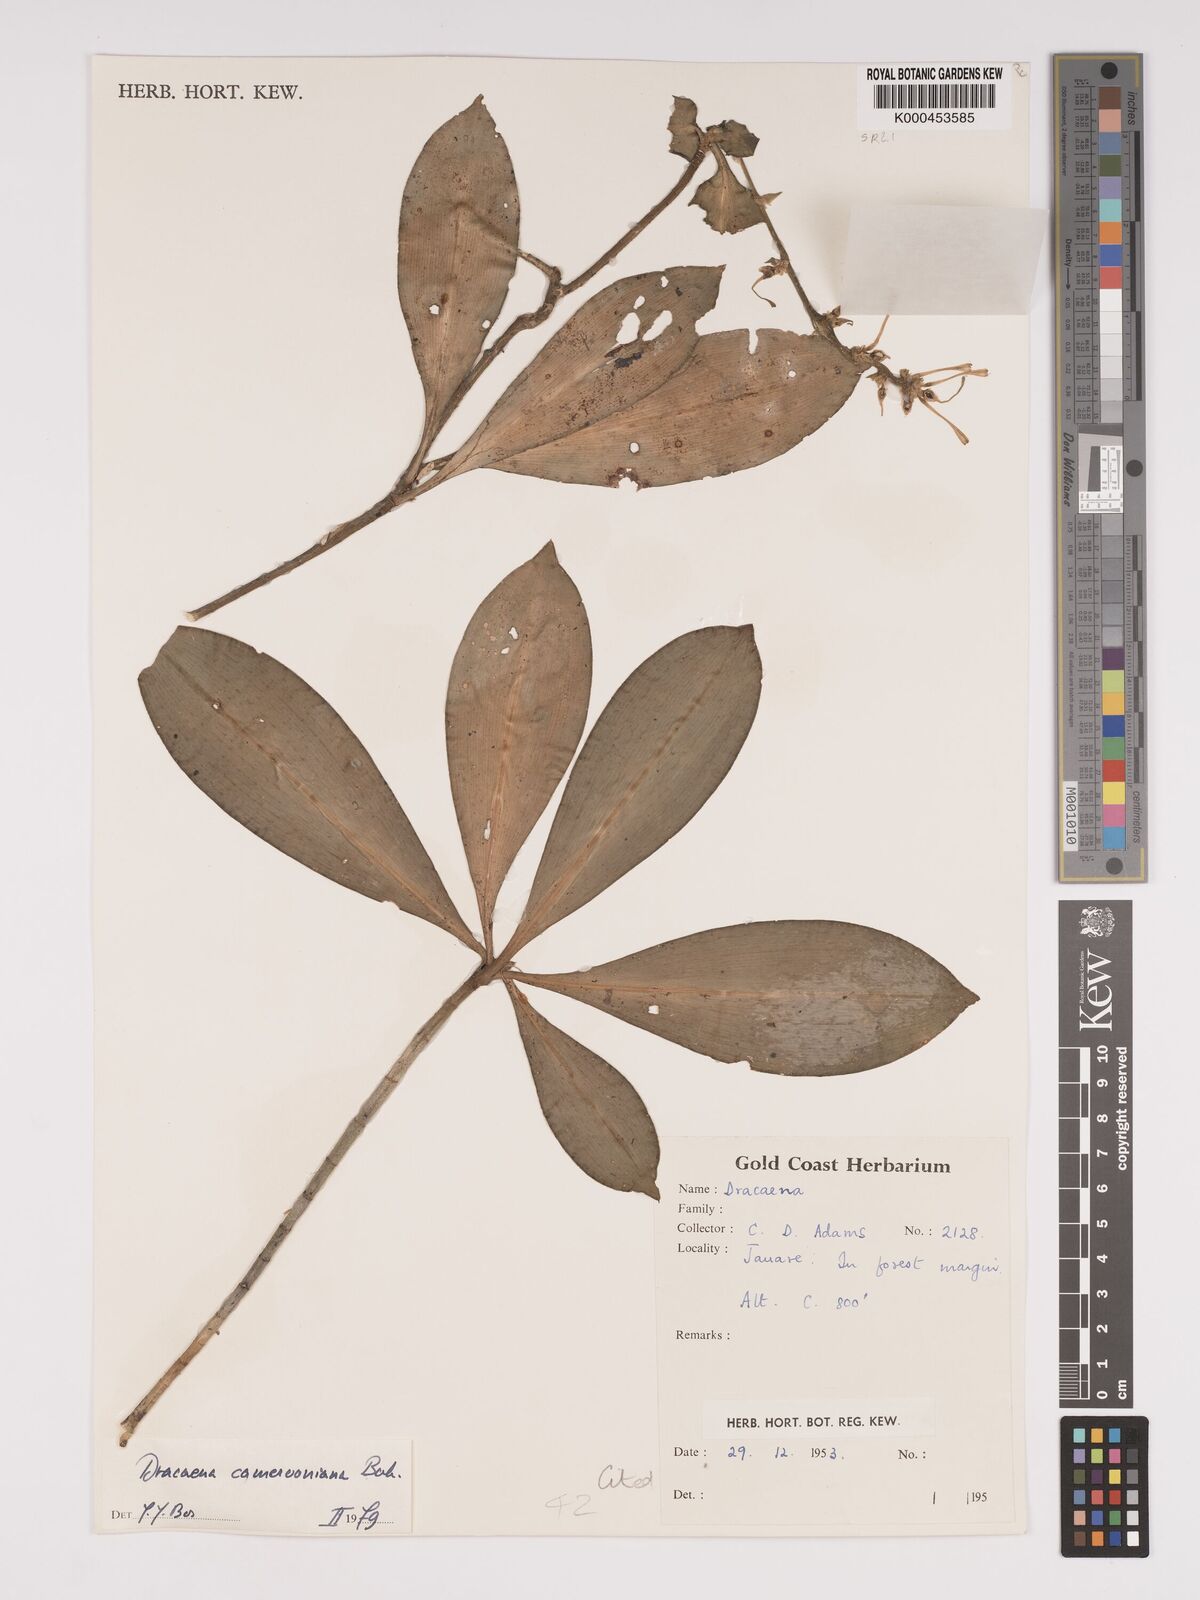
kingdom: Plantae
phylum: Tracheophyta
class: Liliopsida
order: Asparagales
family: Asparagaceae
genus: Dracaena
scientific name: Dracaena camerooniana
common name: Dragon tree
